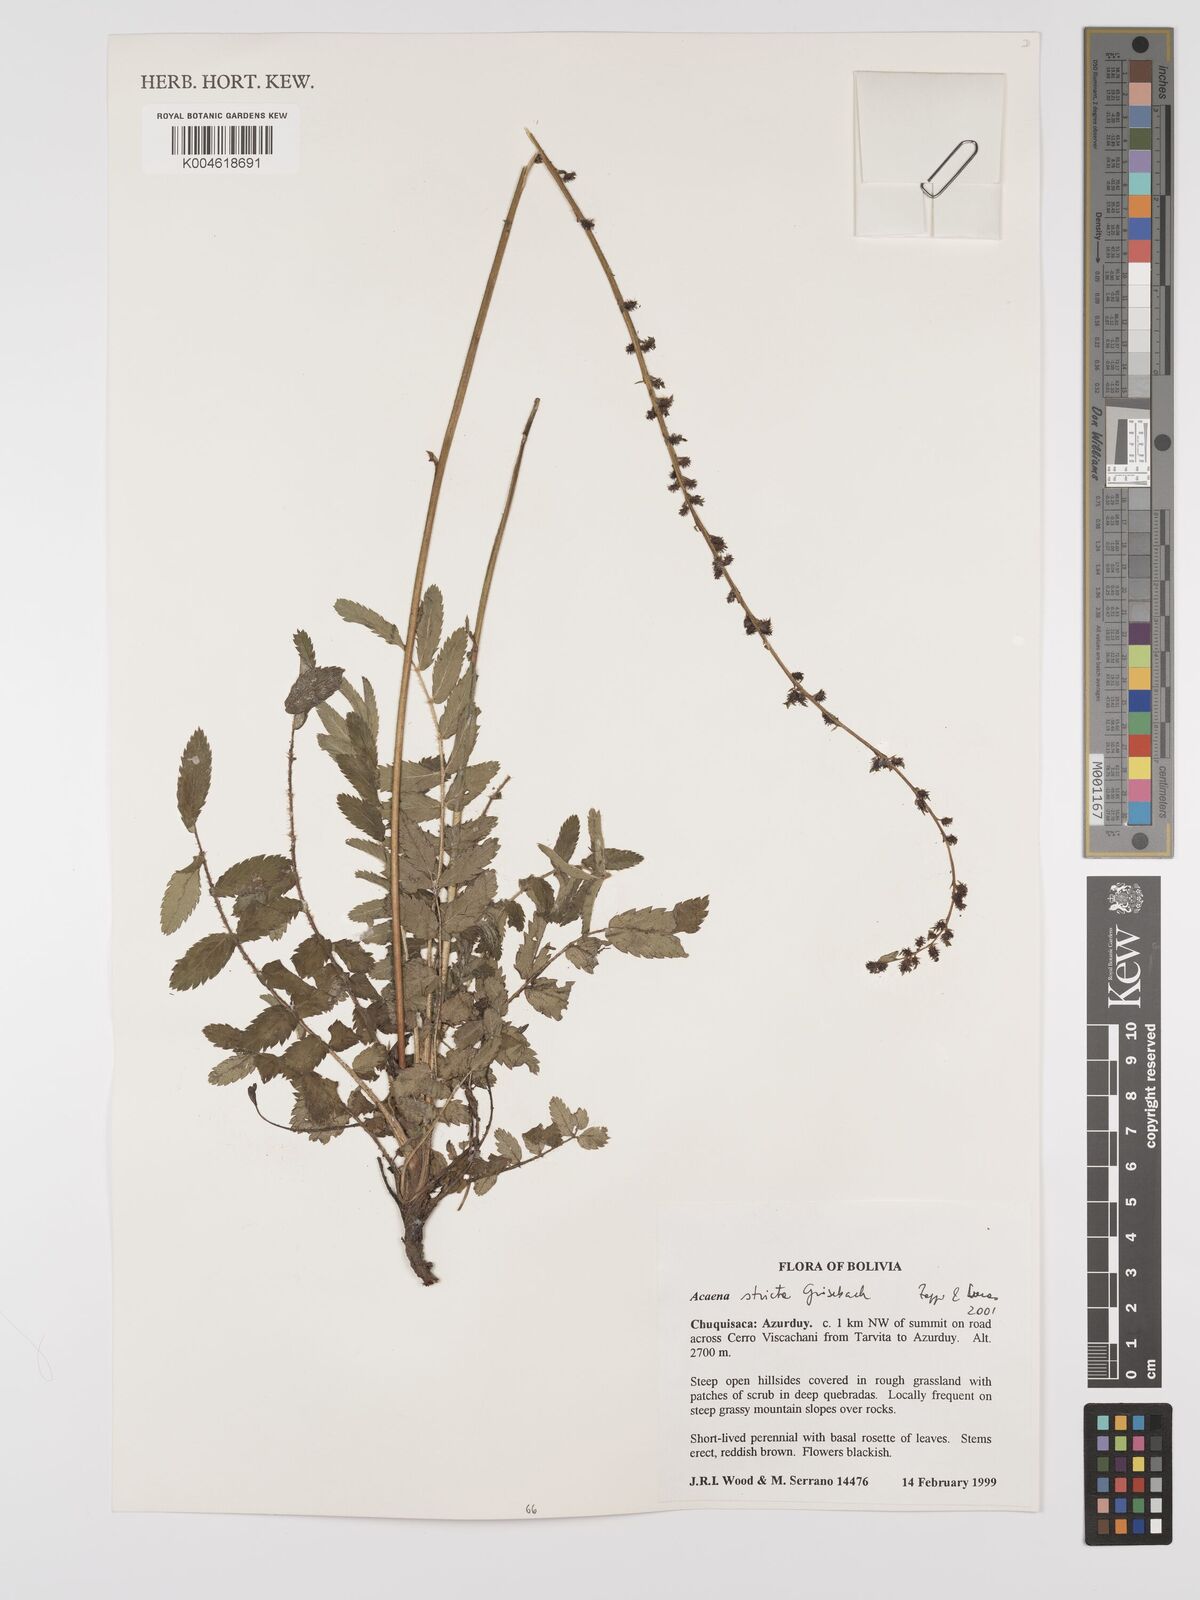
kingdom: Plantae
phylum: Tracheophyta
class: Magnoliopsida
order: Rosales
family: Rosaceae
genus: Acaena
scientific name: Acaena stricta
